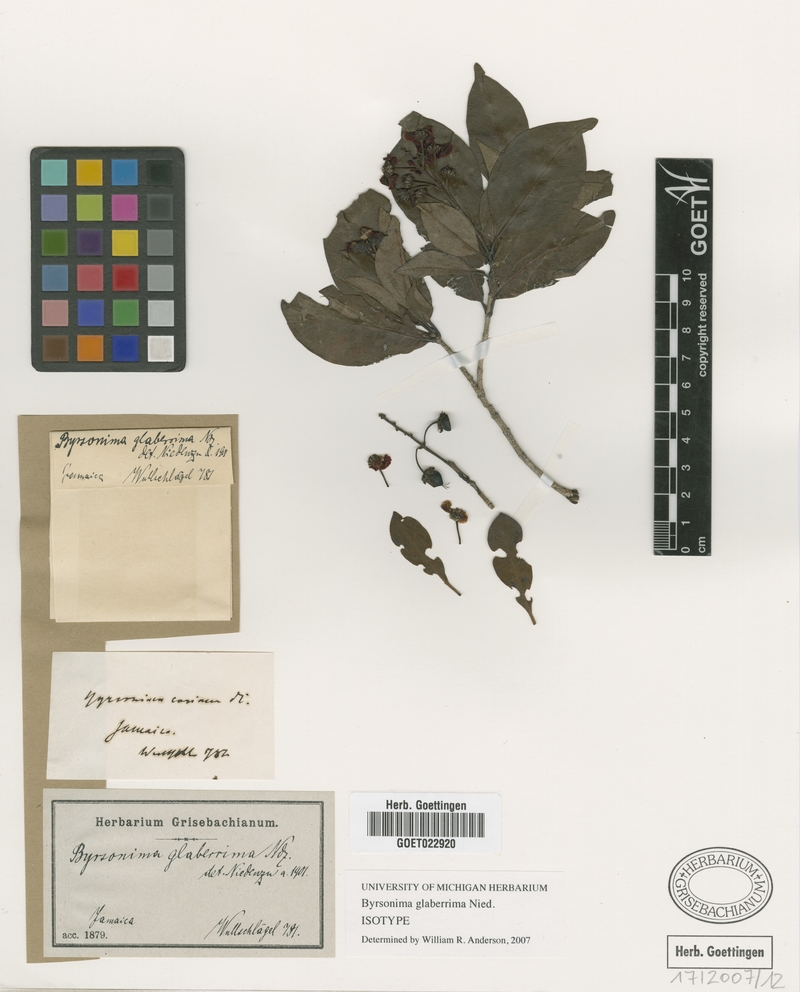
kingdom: Plantae
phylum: Tracheophyta
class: Magnoliopsida
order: Malpighiales
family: Malpighiaceae
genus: Byrsonima
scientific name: Byrsonima glaberrima
